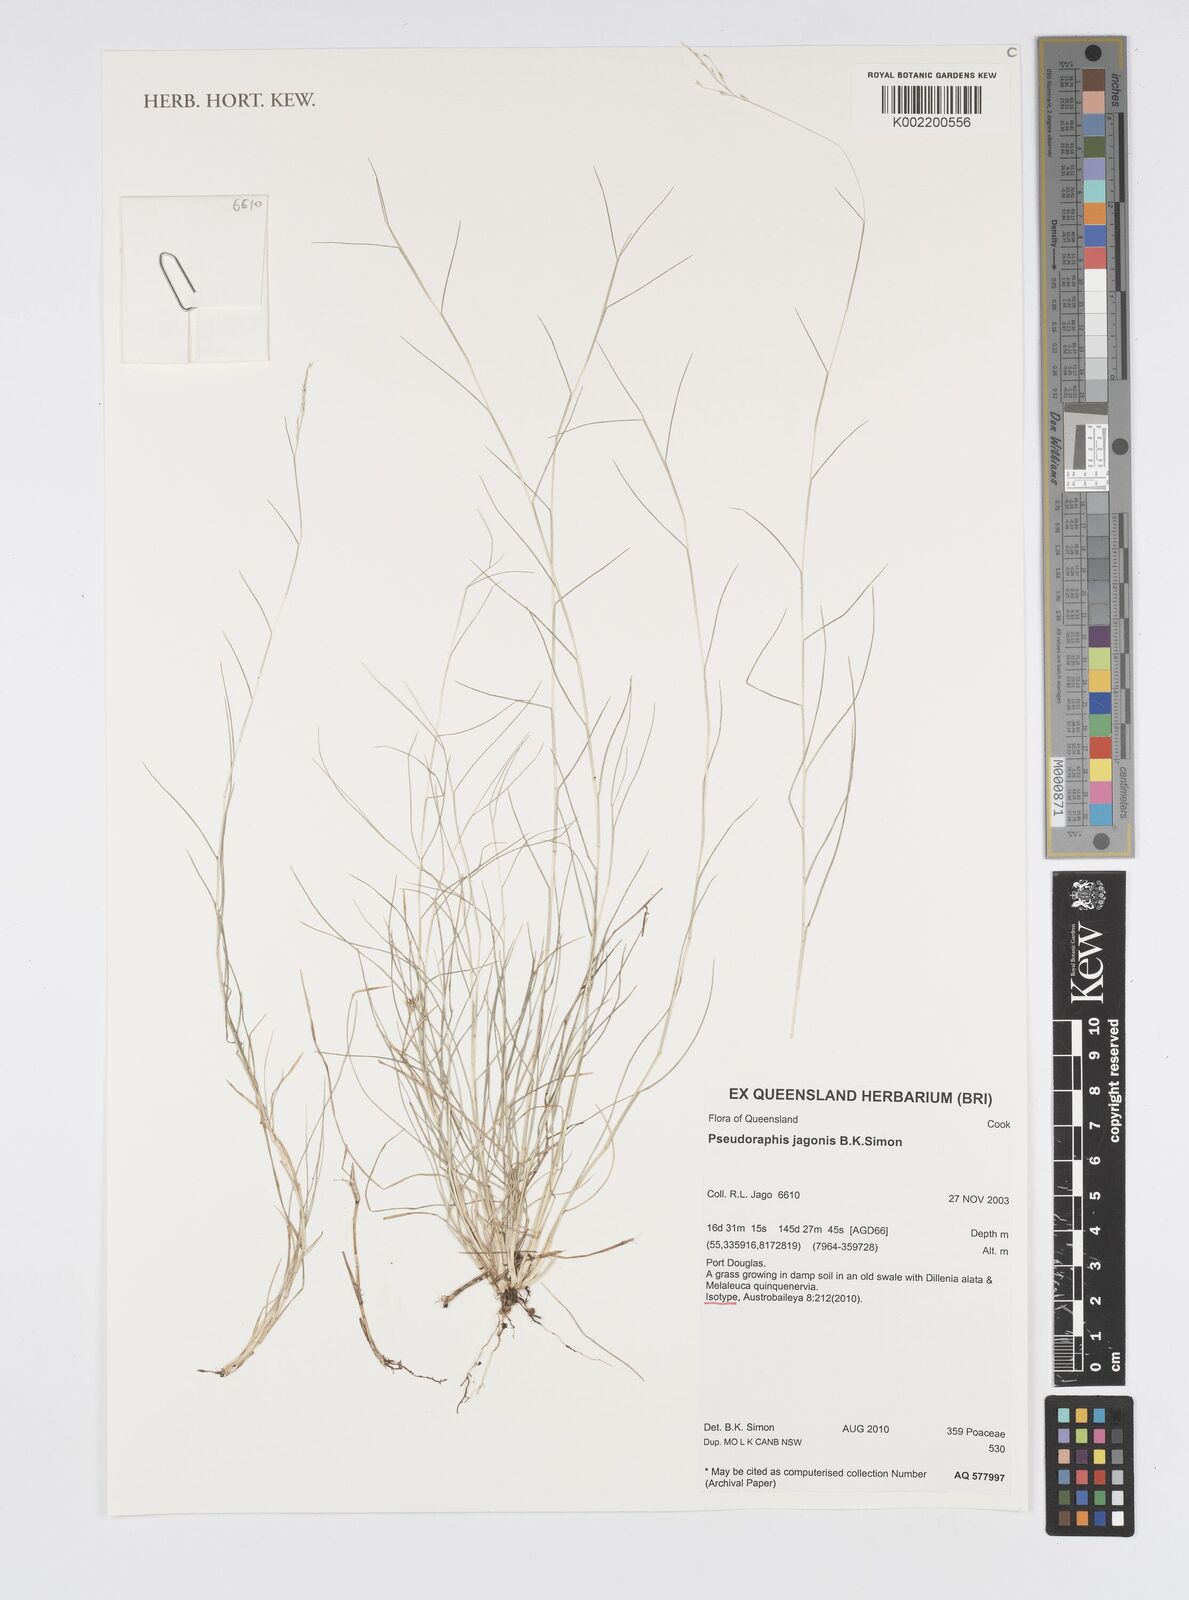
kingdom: Plantae
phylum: Tracheophyta
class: Liliopsida
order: Poales
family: Poaceae
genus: Pseudoraphis
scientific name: Pseudoraphis jagonis
